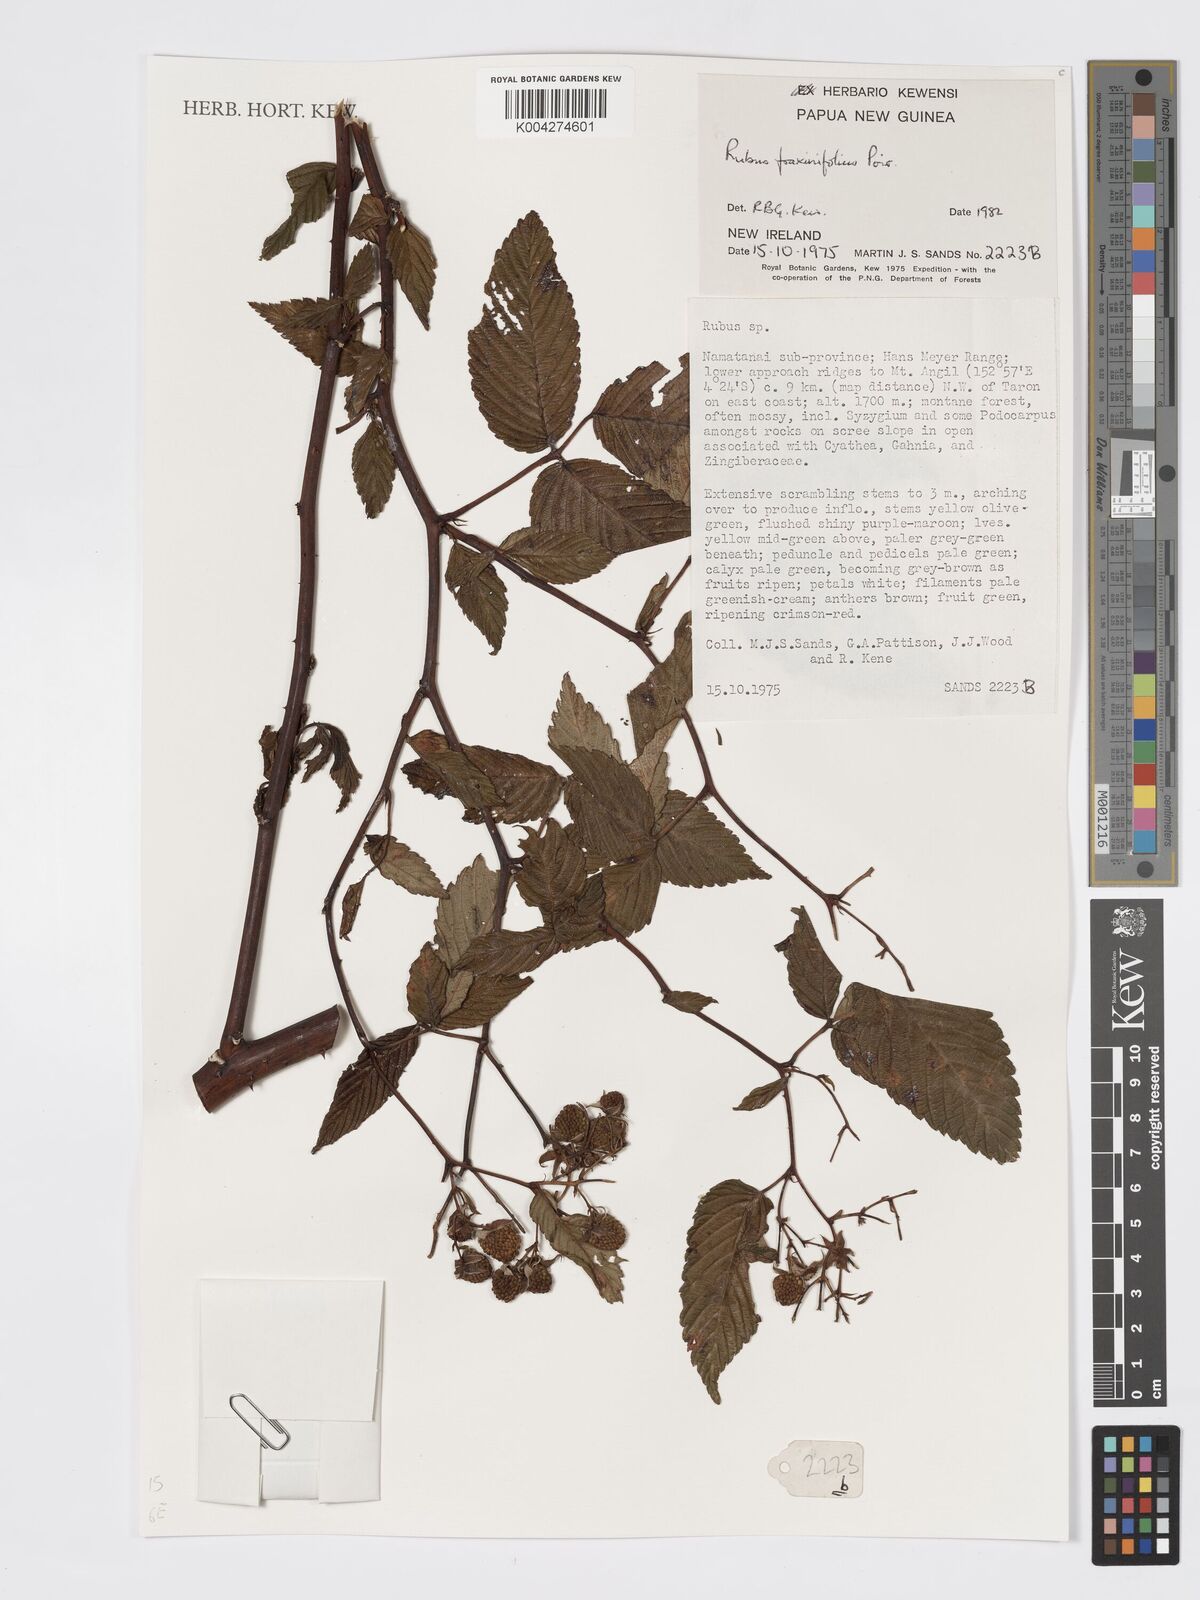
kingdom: Plantae
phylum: Tracheophyta
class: Magnoliopsida
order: Rosales
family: Rosaceae
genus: Rubus
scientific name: Rubus fraxinifolius
